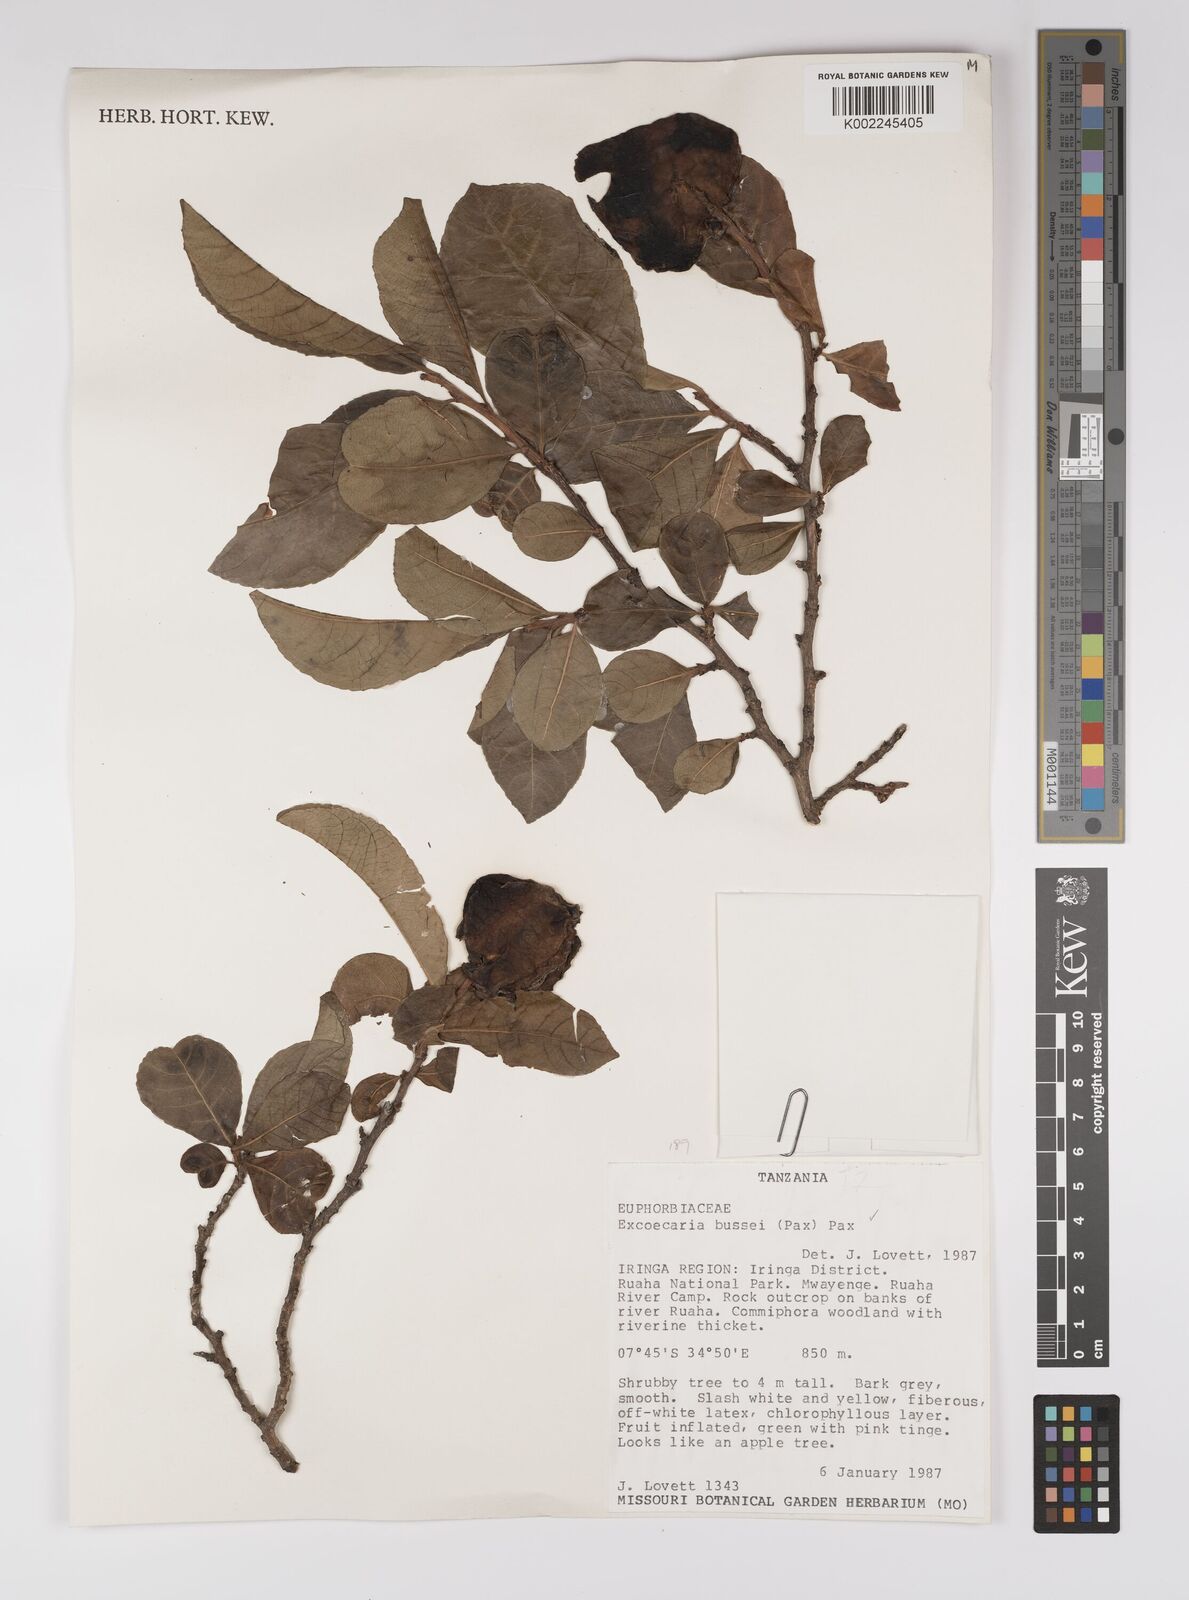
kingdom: Plantae
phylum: Tracheophyta
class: Magnoliopsida
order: Malpighiales
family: Euphorbiaceae
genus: Excoecaria
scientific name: Excoecaria bussei
